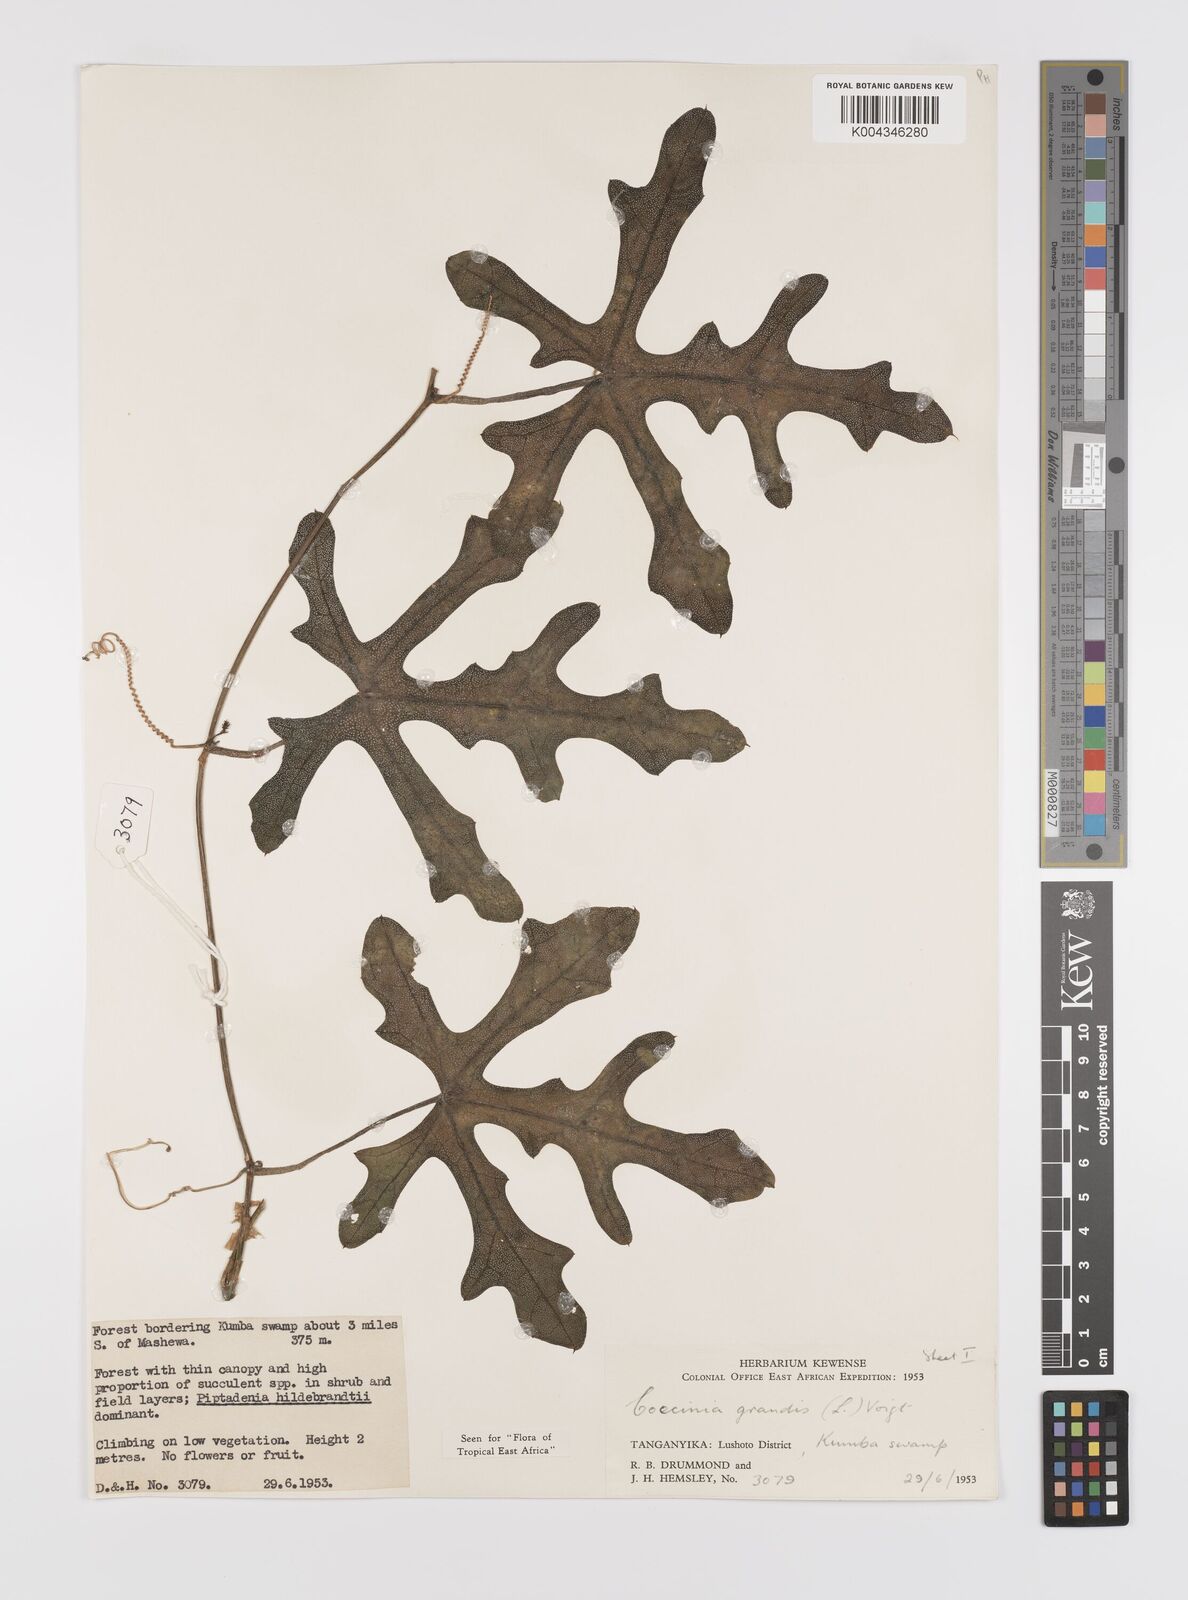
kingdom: Plantae
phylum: Tracheophyta
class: Magnoliopsida
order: Cucurbitales
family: Cucurbitaceae
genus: Coccinia
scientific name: Coccinia grandis
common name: Ivy gourd
